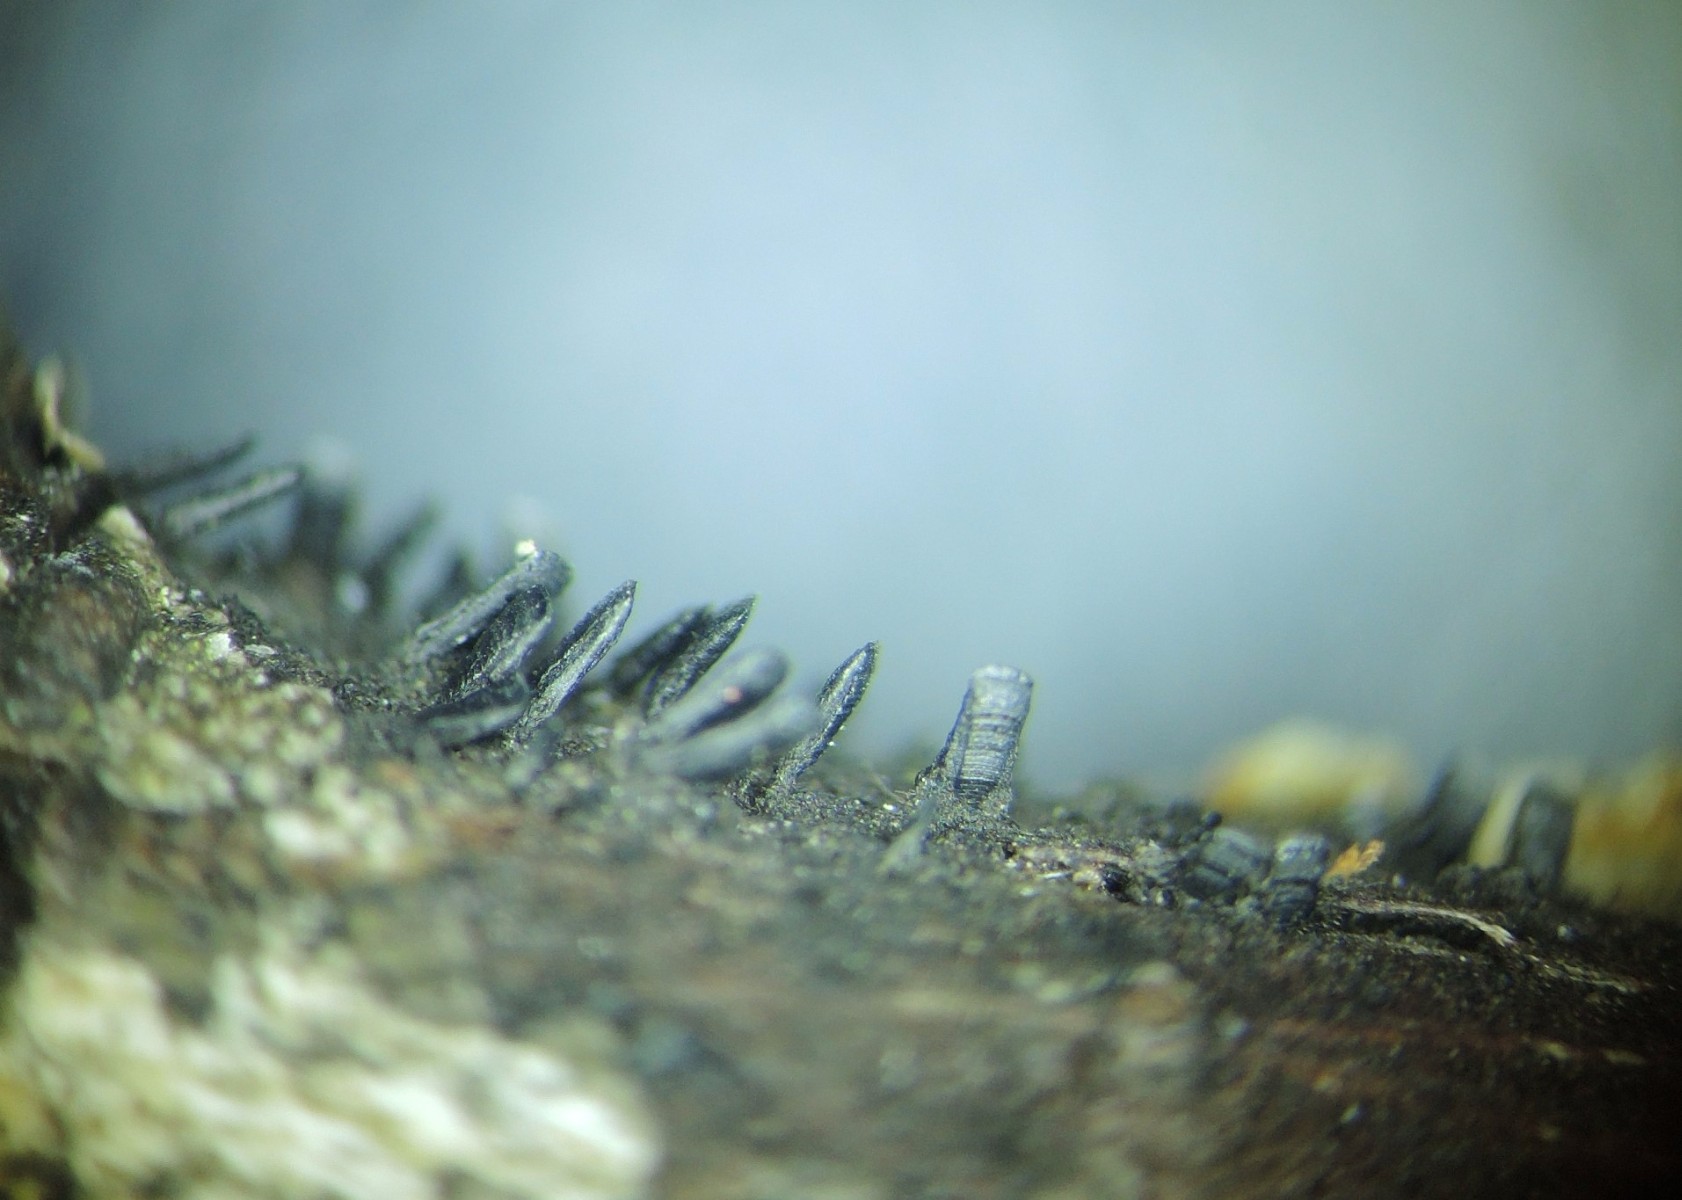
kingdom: Fungi
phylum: Ascomycota
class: Eurotiomycetes
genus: Glyphium
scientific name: Glyphium elatum
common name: kuløkse
